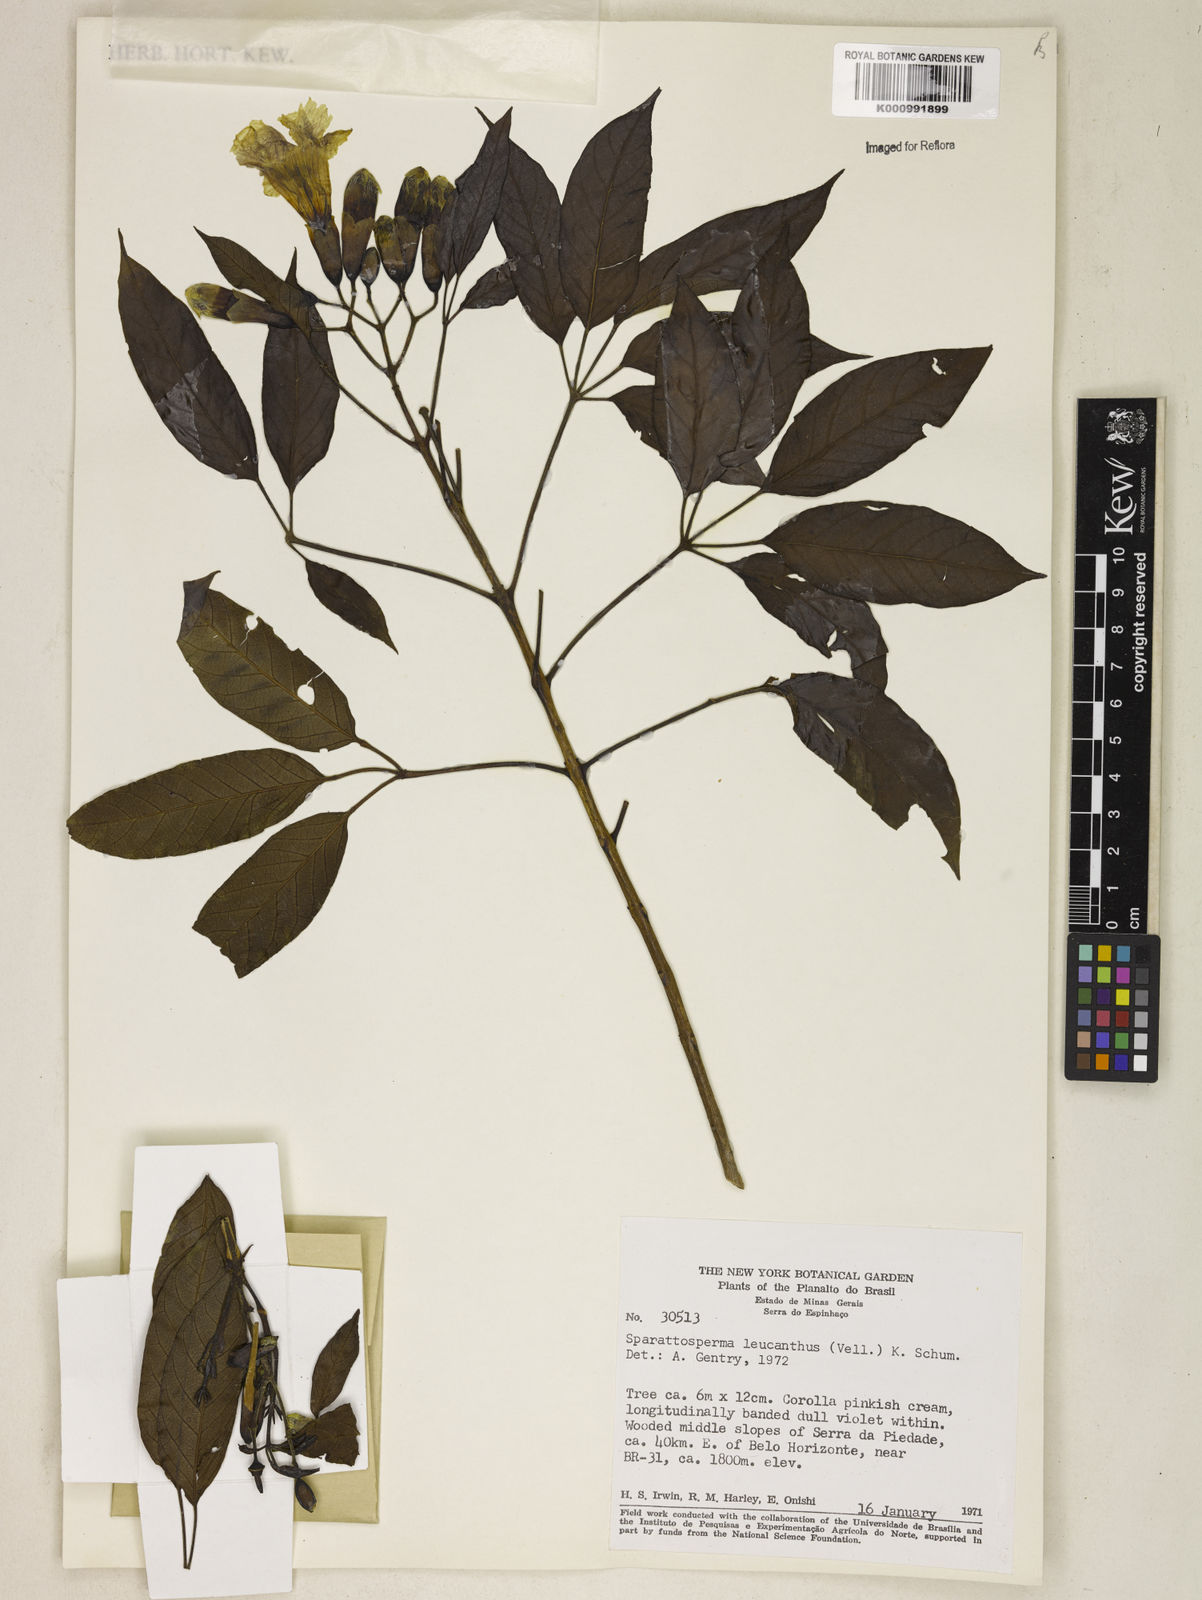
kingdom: Plantae
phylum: Tracheophyta
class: Magnoliopsida
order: Lamiales
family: Bignoniaceae
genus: Sparattosperma
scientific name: Sparattosperma leucanthum
